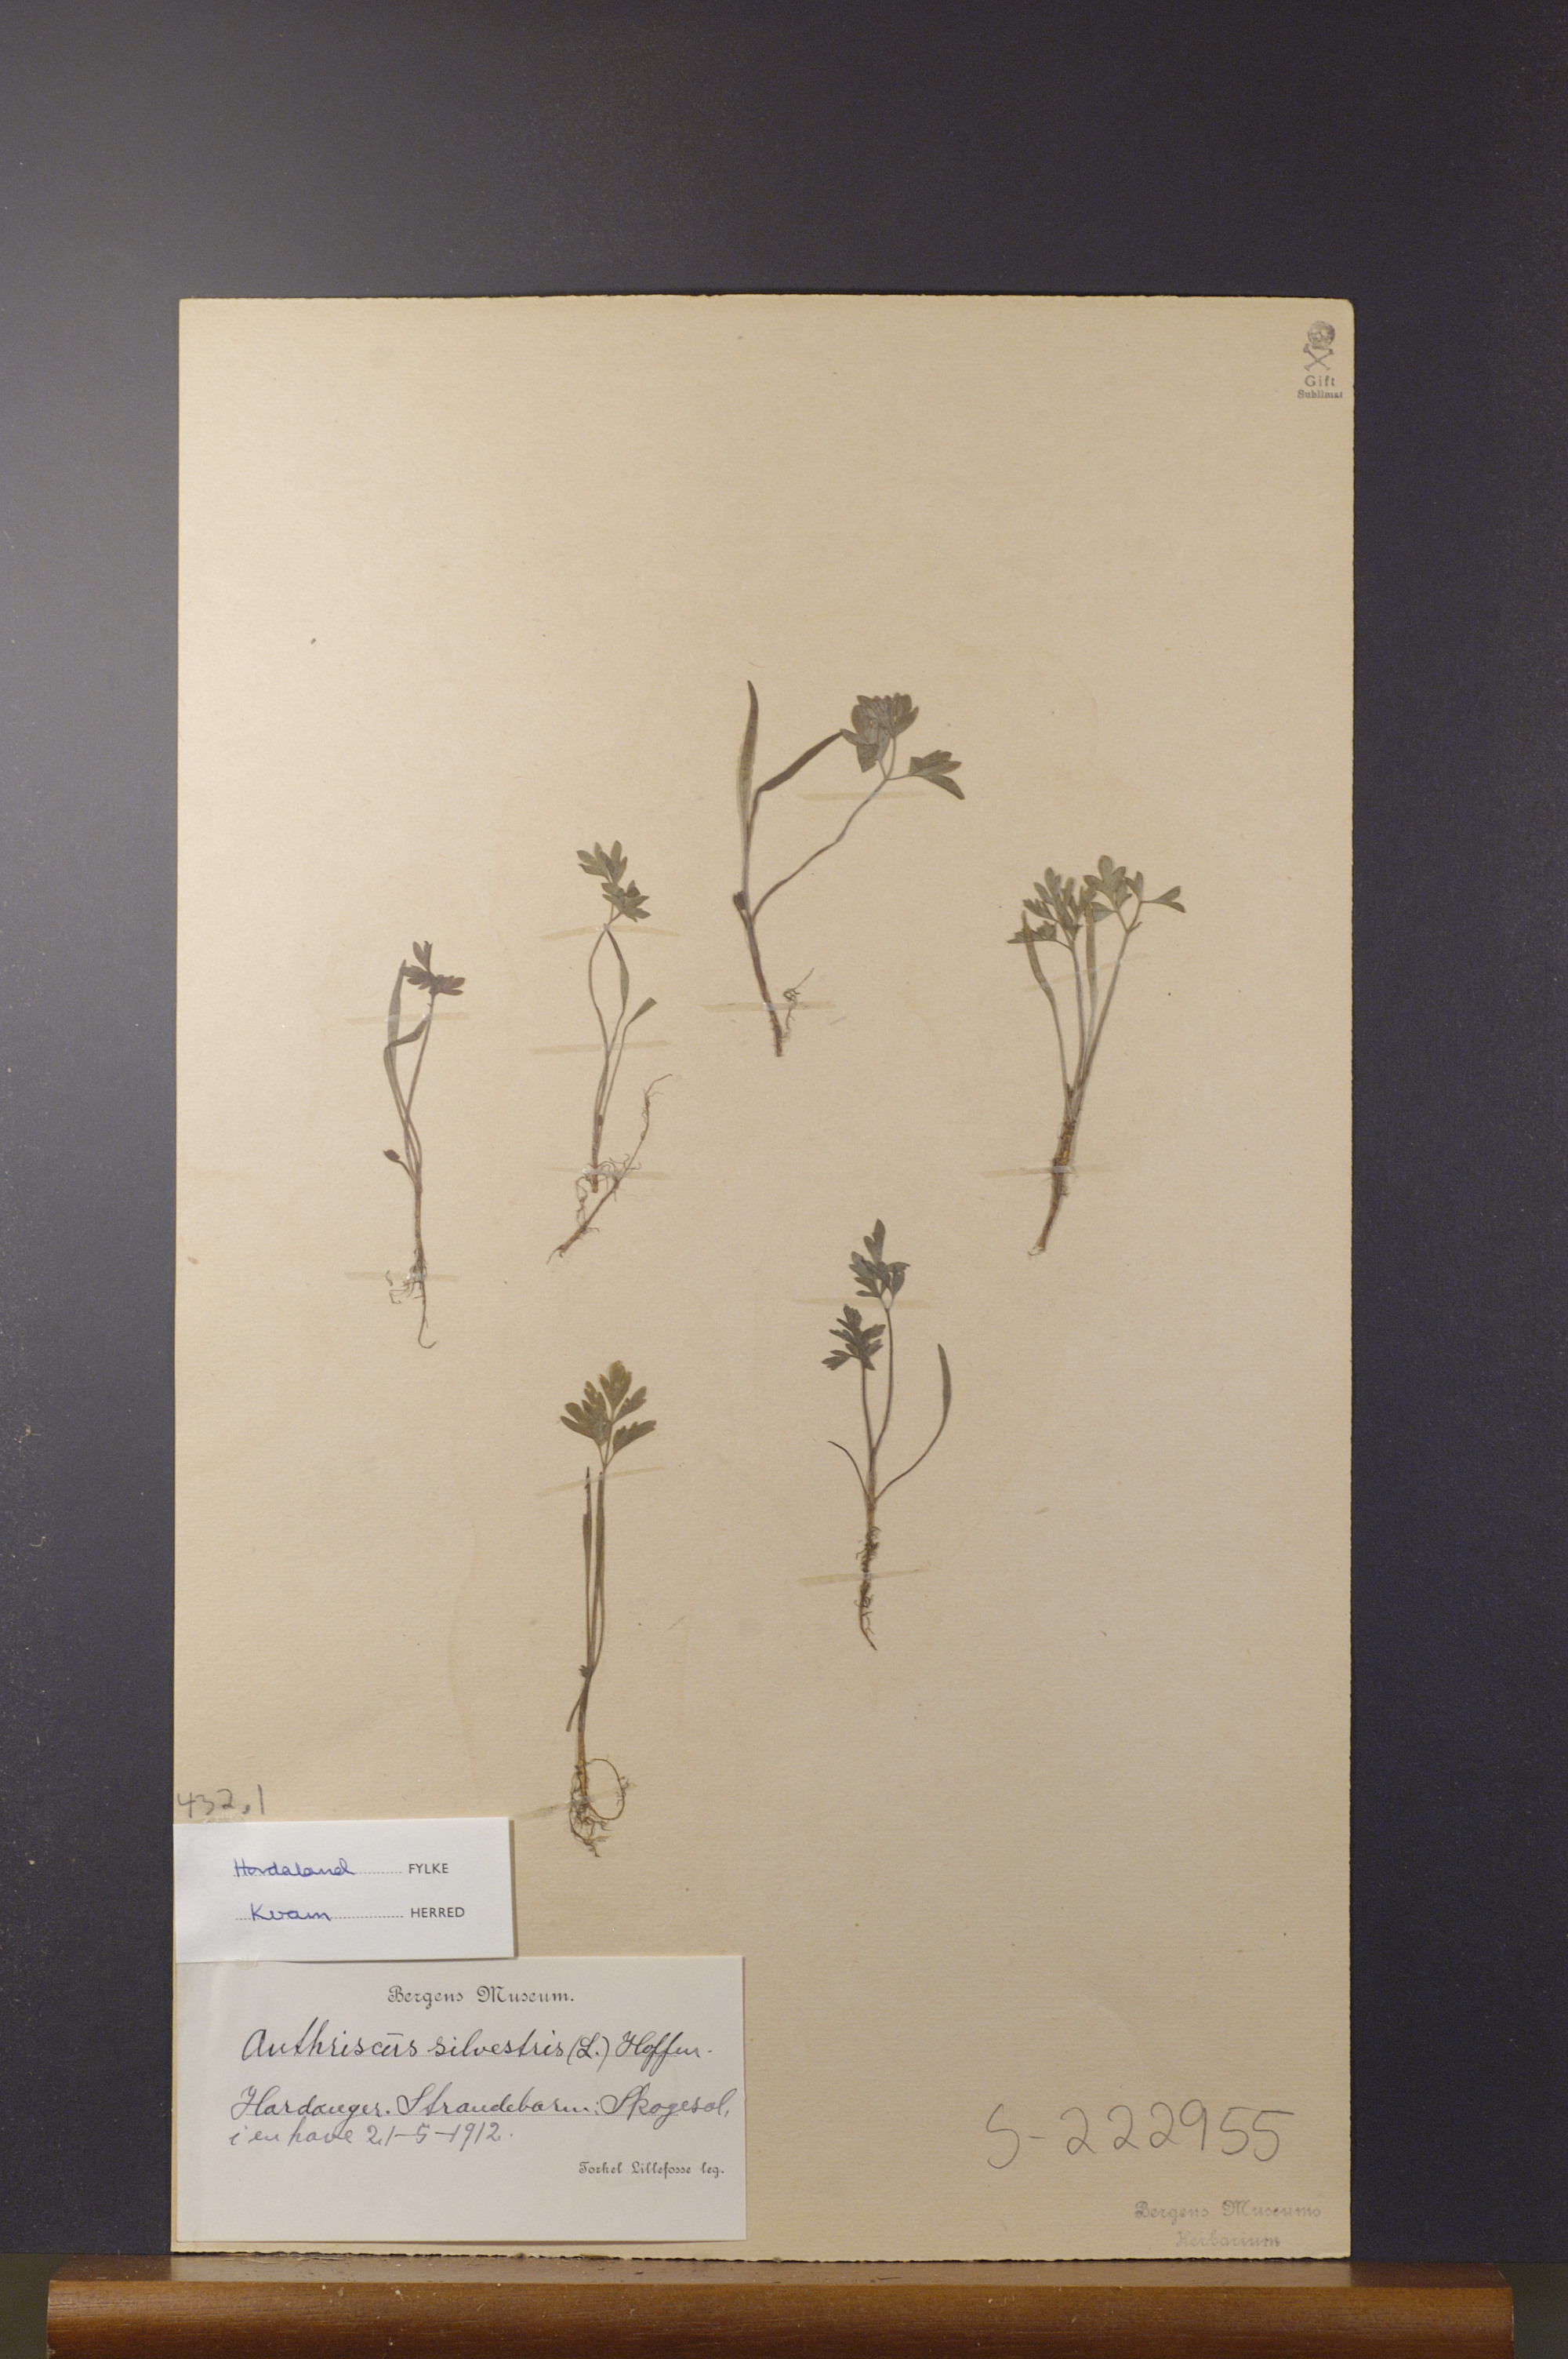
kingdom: Plantae
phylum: Tracheophyta
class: Magnoliopsida
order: Apiales
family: Apiaceae
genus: Anthriscus
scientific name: Anthriscus sylvestris
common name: Cow parsley
